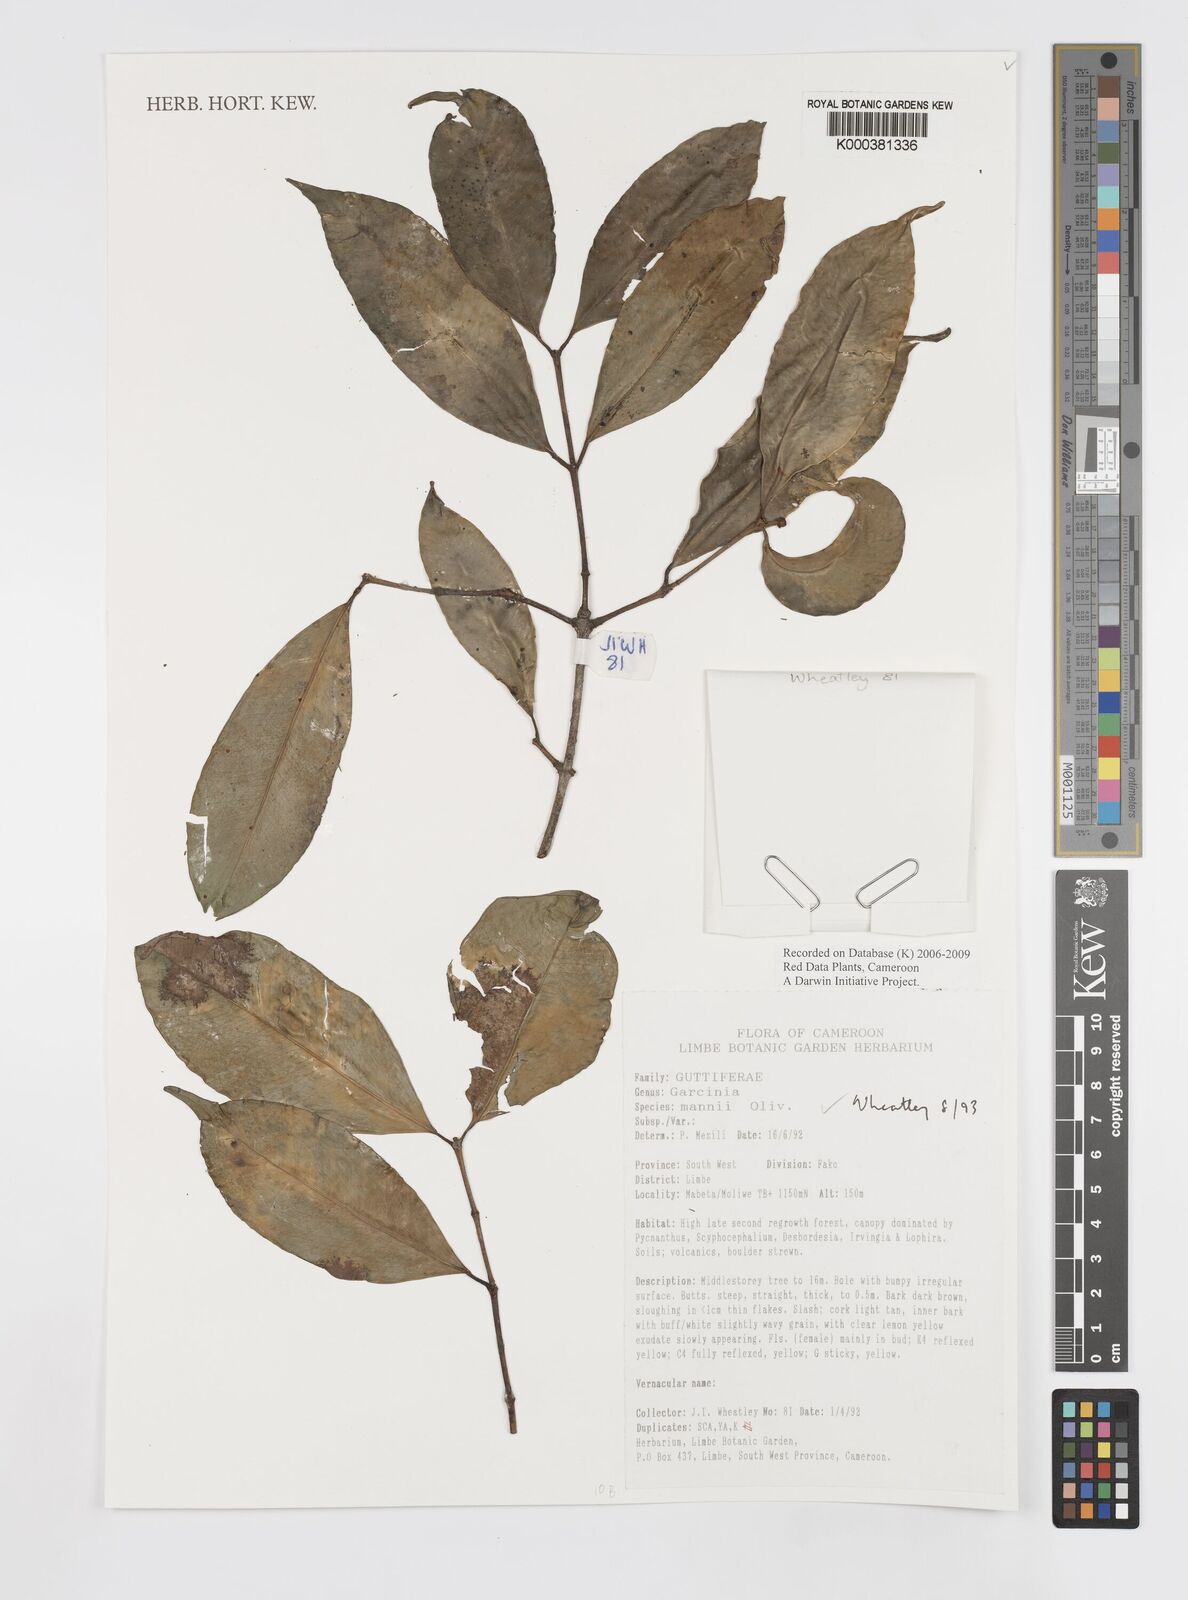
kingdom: Plantae
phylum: Tracheophyta
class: Magnoliopsida
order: Malpighiales
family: Clusiaceae
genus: Garcinia
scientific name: Garcinia mannii
